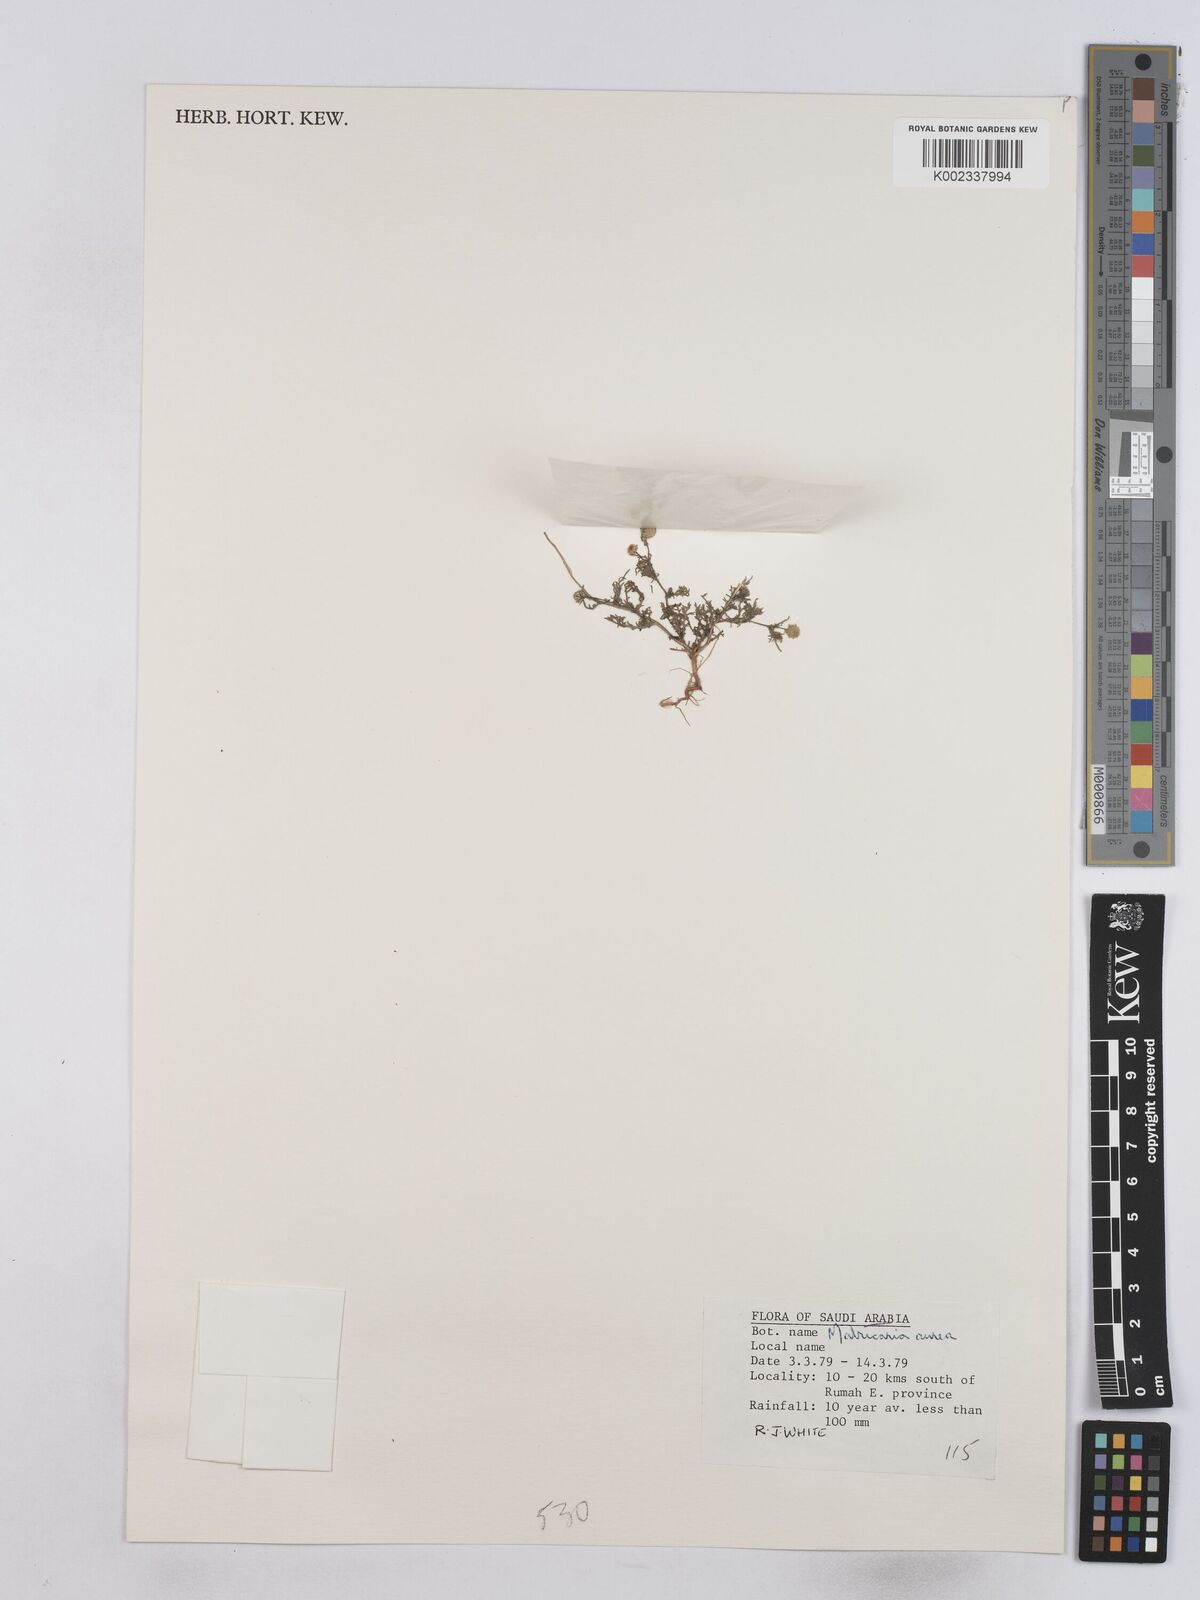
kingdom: Plantae
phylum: Tracheophyta
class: Magnoliopsida
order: Asterales
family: Asteraceae
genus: Matricaria
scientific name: Matricaria aurea
